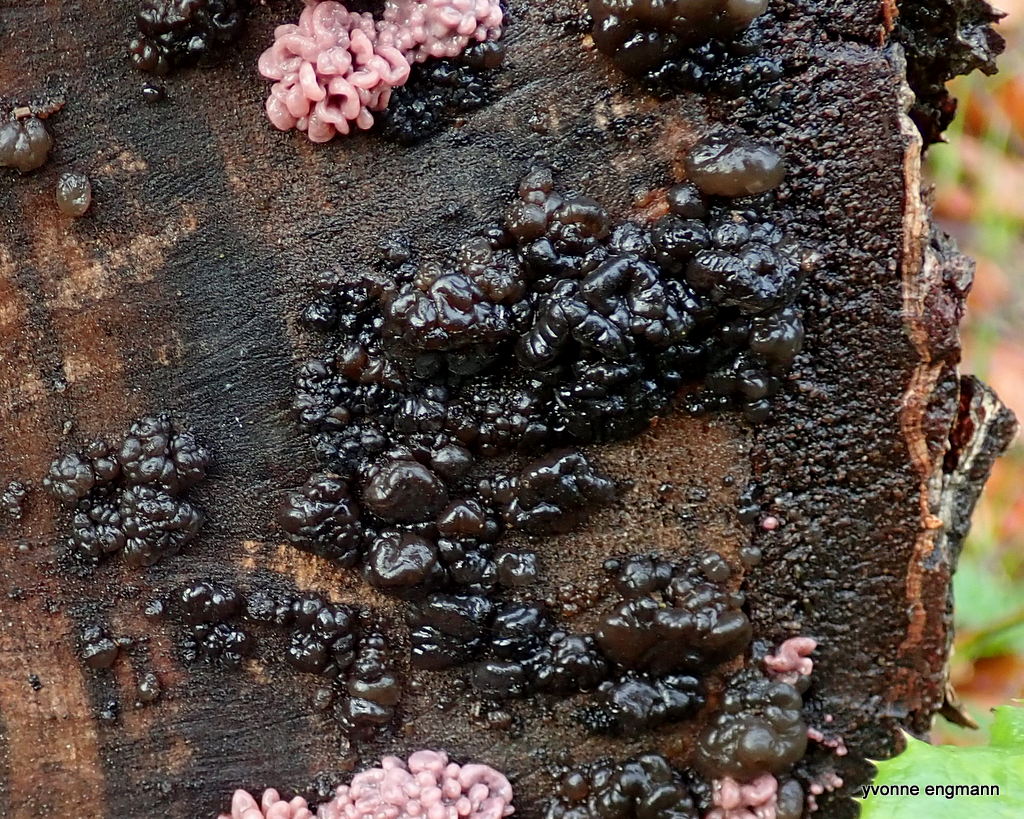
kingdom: Fungi
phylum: Basidiomycota
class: Agaricomycetes
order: Auriculariales
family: Auriculariaceae
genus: Exidia
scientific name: Exidia nigricans
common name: almindelig bævretop
